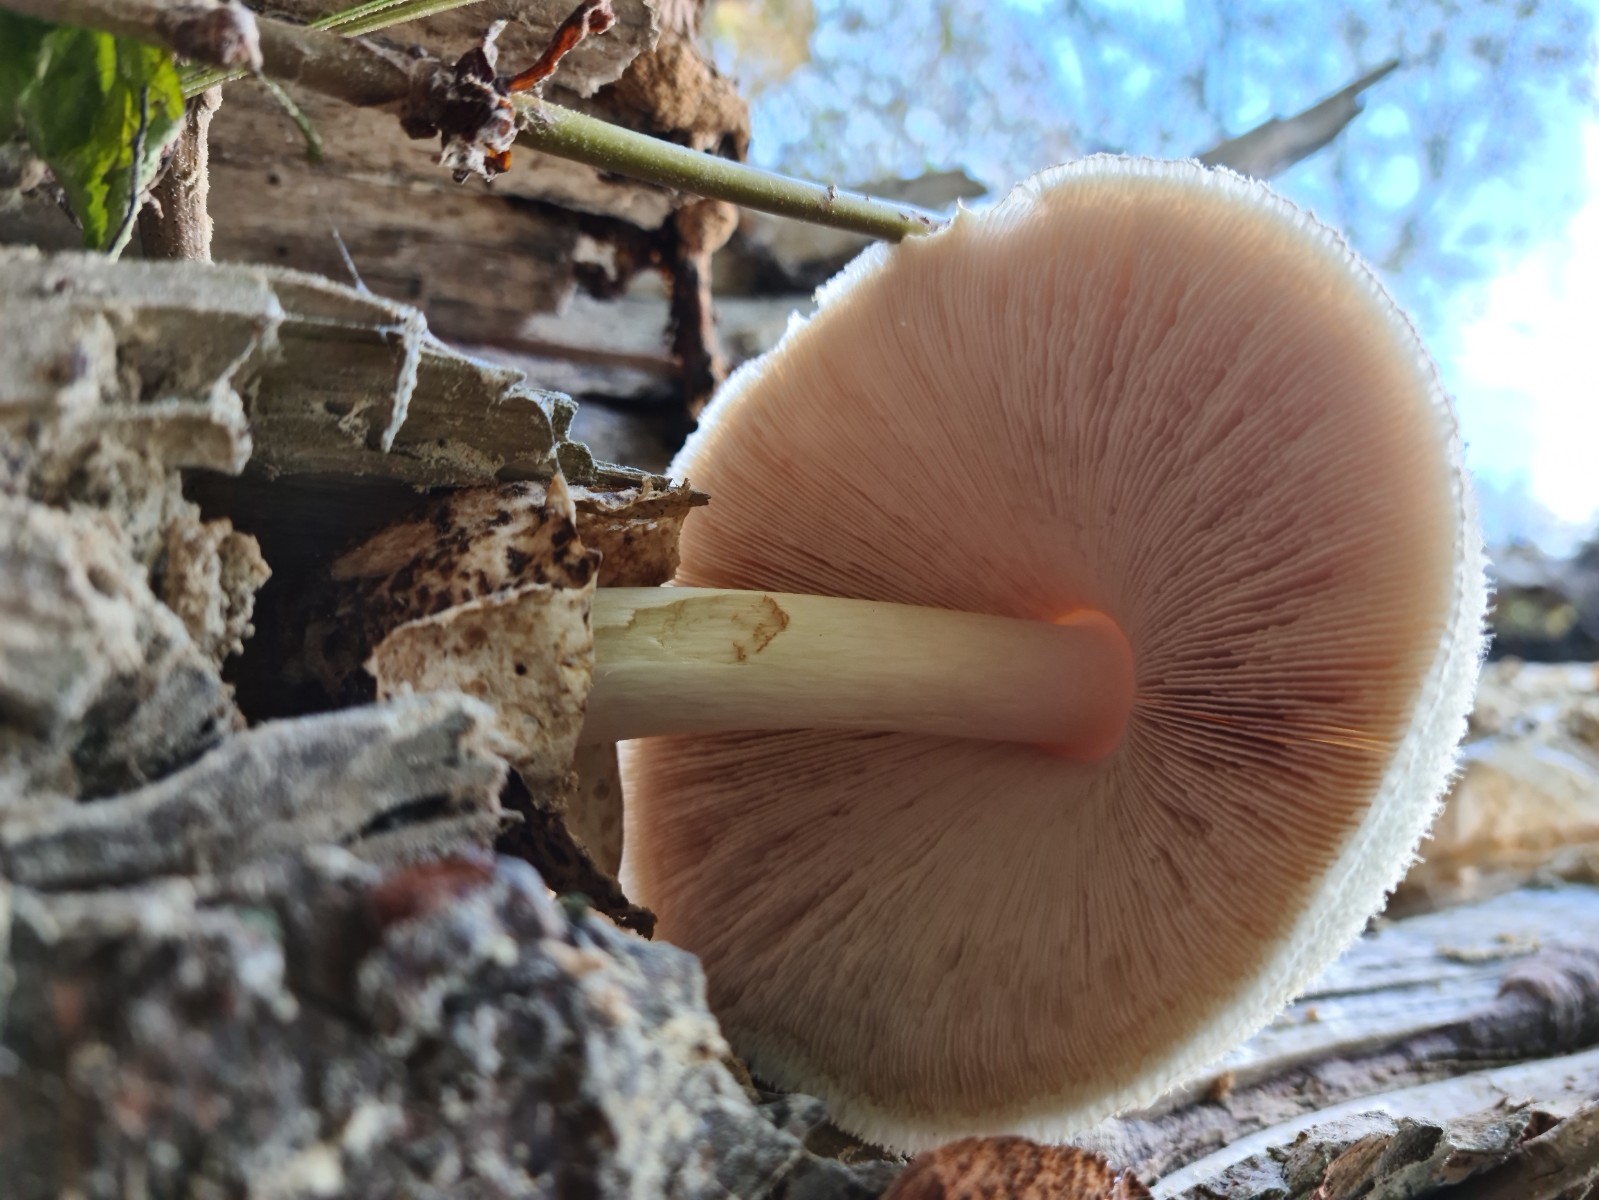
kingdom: Fungi
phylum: Basidiomycota
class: Agaricomycetes
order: Agaricales
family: Pluteaceae
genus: Volvariella
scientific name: Volvariella bombycina
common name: silkehåret posesvamp
